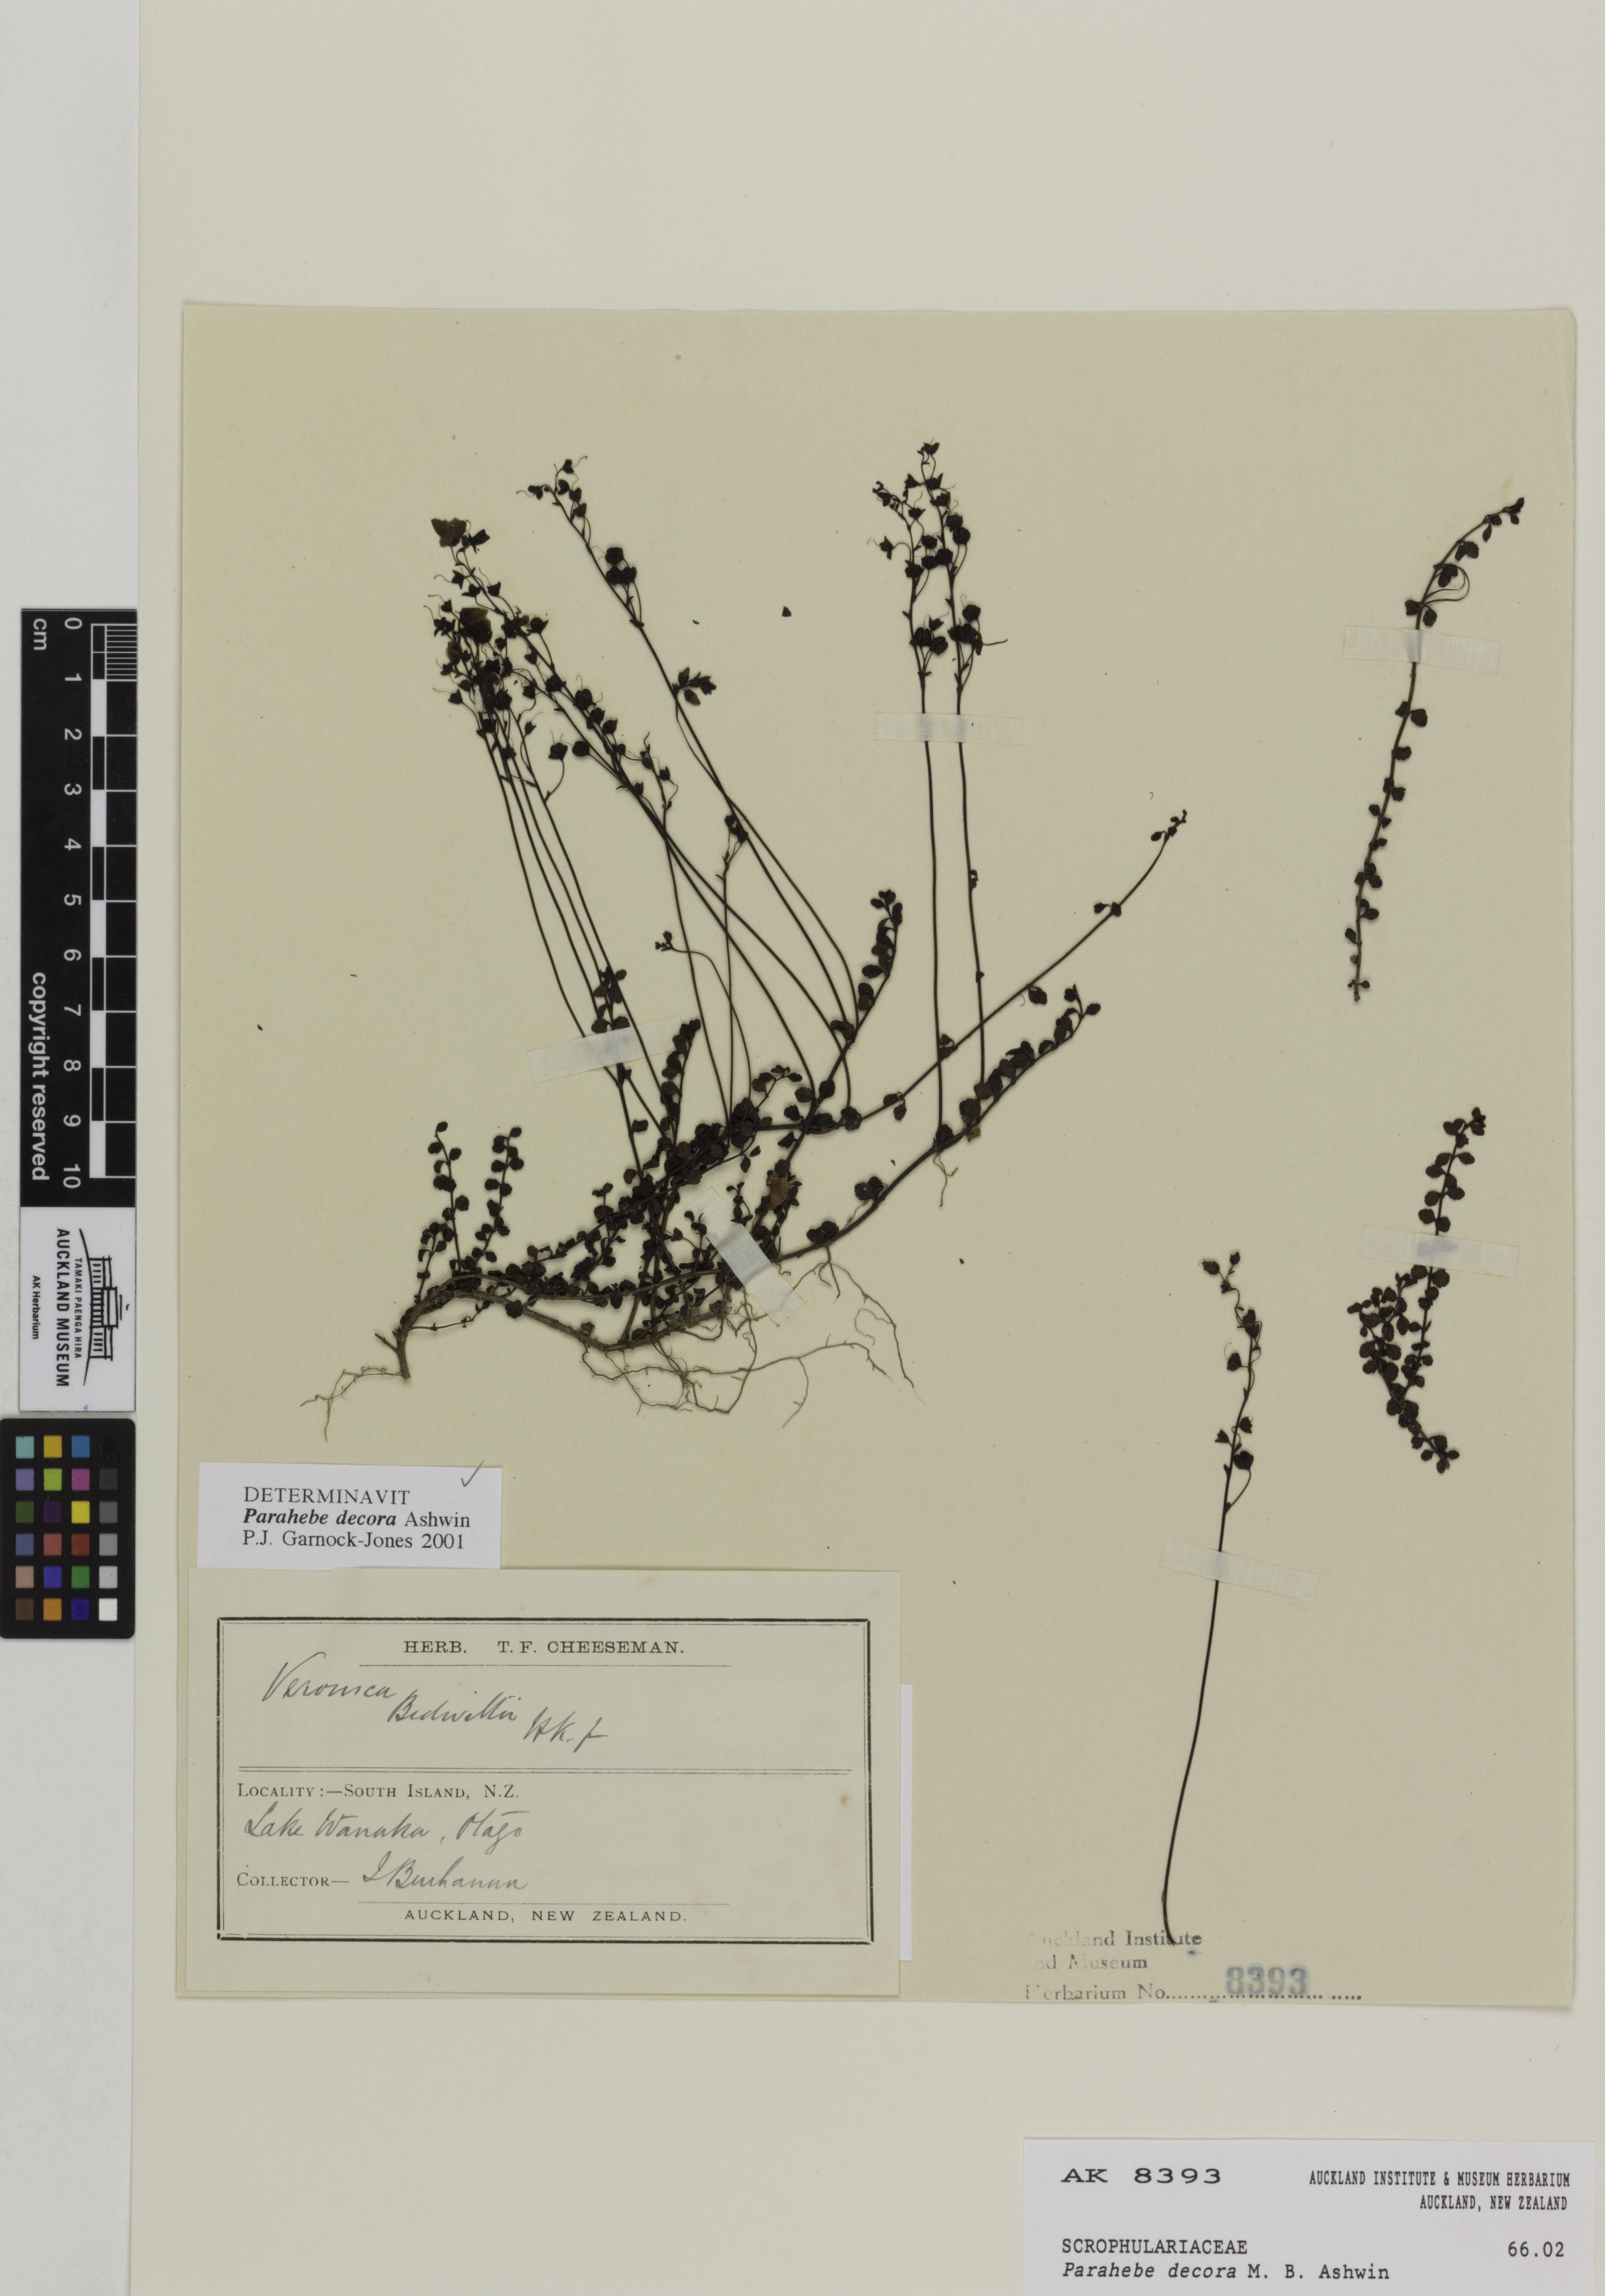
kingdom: Plantae
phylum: Tracheophyta
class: Magnoliopsida
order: Lamiales
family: Plantaginaceae
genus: Veronica
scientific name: Veronica decora
